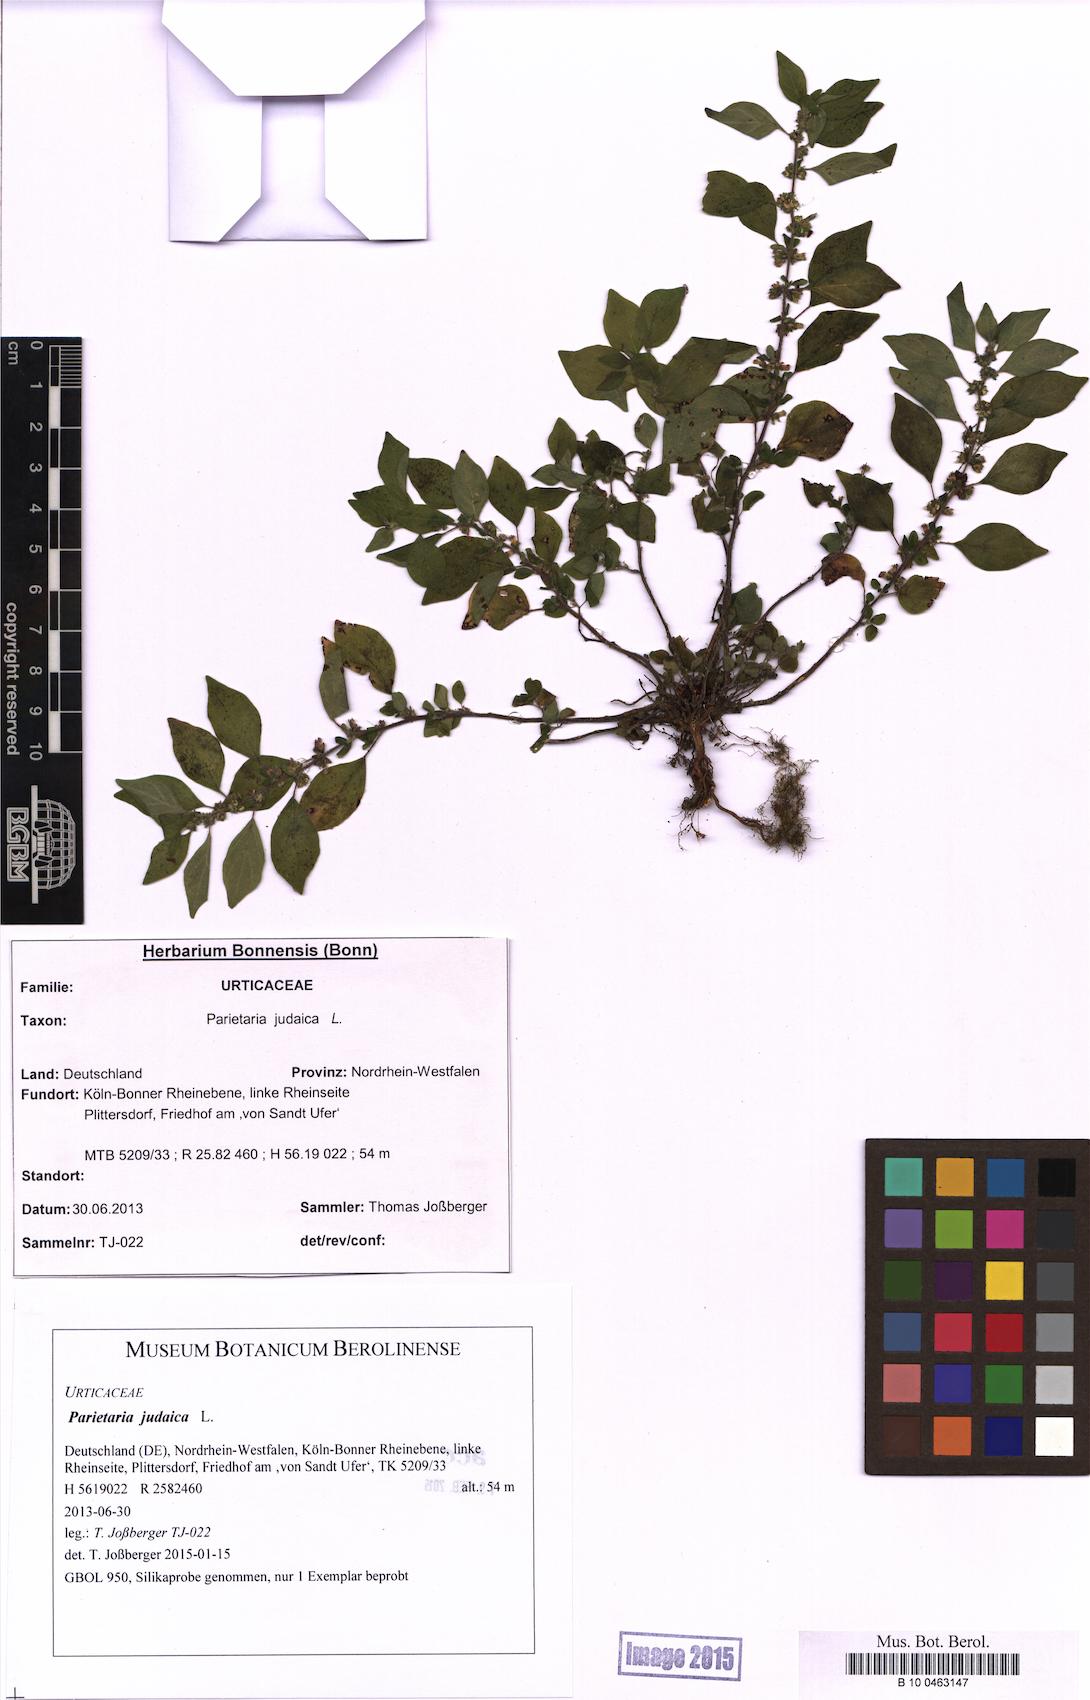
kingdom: Plantae
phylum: Tracheophyta
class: Magnoliopsida
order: Rosales
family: Urticaceae
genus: Parietaria
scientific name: Parietaria judaica
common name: Pellitory-of-the-wall
